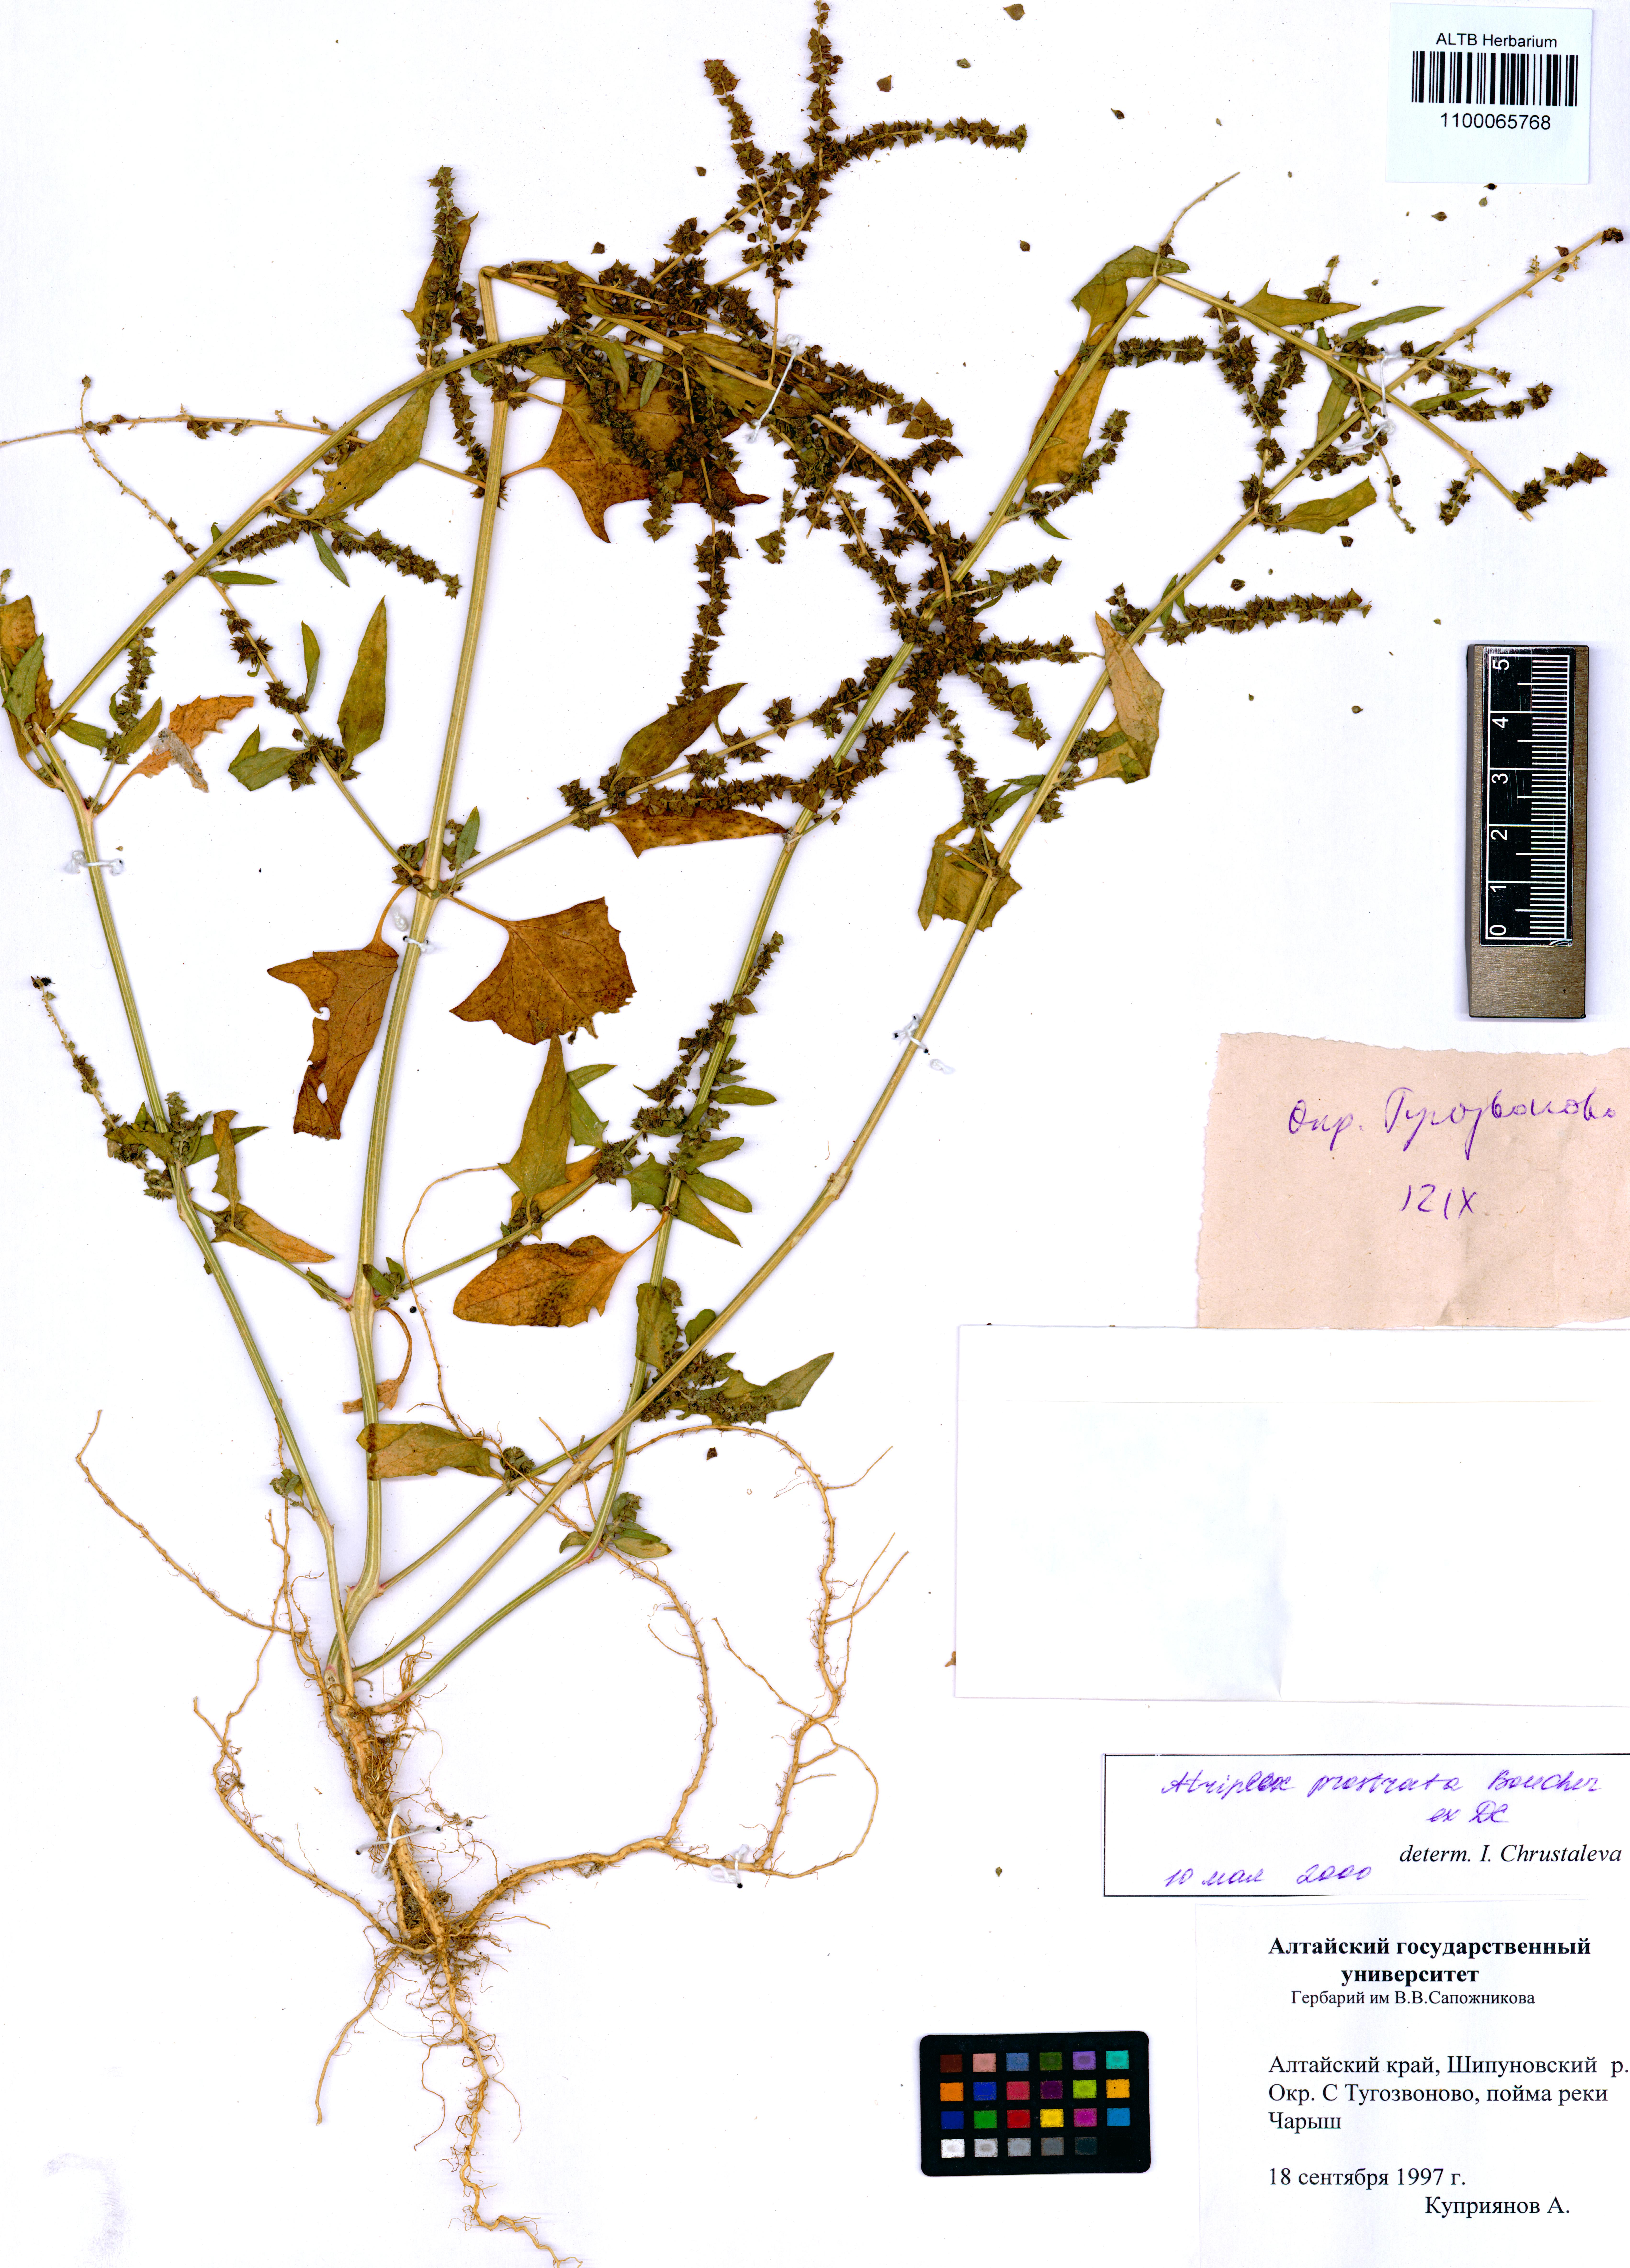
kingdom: Plantae
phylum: Tracheophyta
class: Magnoliopsida
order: Caryophyllales
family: Amaranthaceae
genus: Atriplex
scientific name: Atriplex prostrata
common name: Spear-leaved orache
